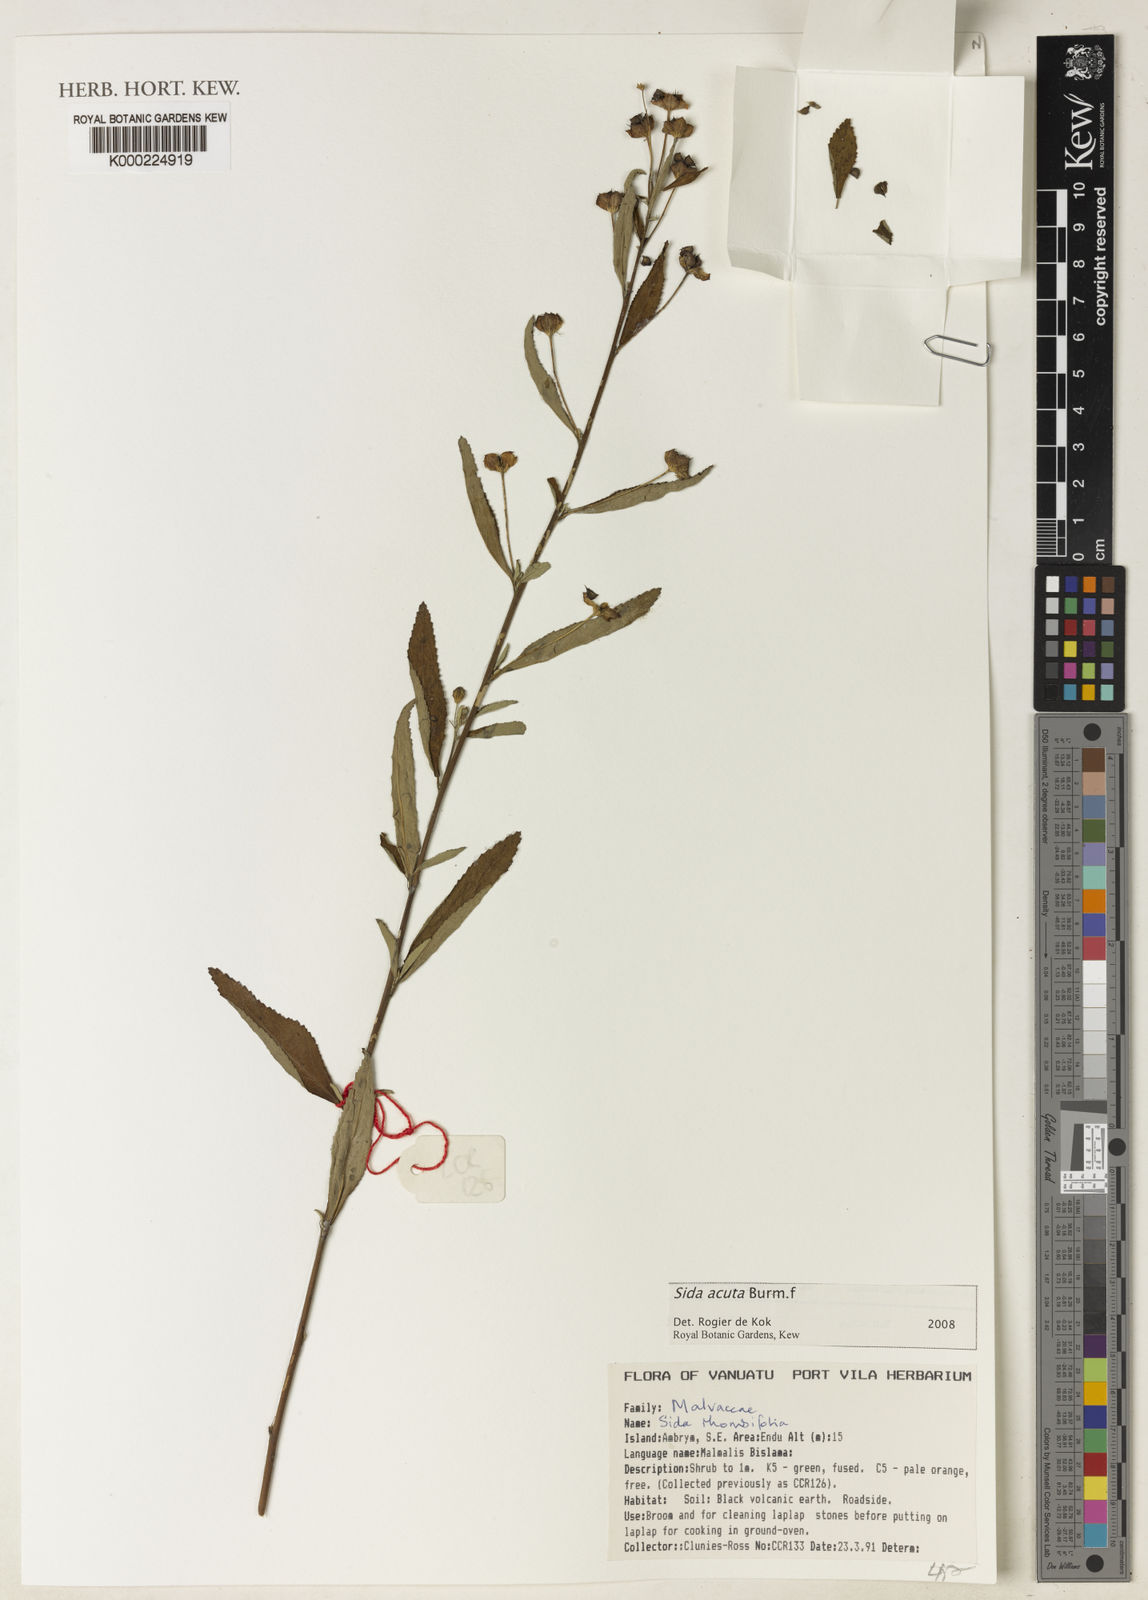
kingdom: Plantae
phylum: Tracheophyta
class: Magnoliopsida
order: Malvales
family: Malvaceae
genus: Sida
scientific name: Sida acuta
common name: Common wireweed
